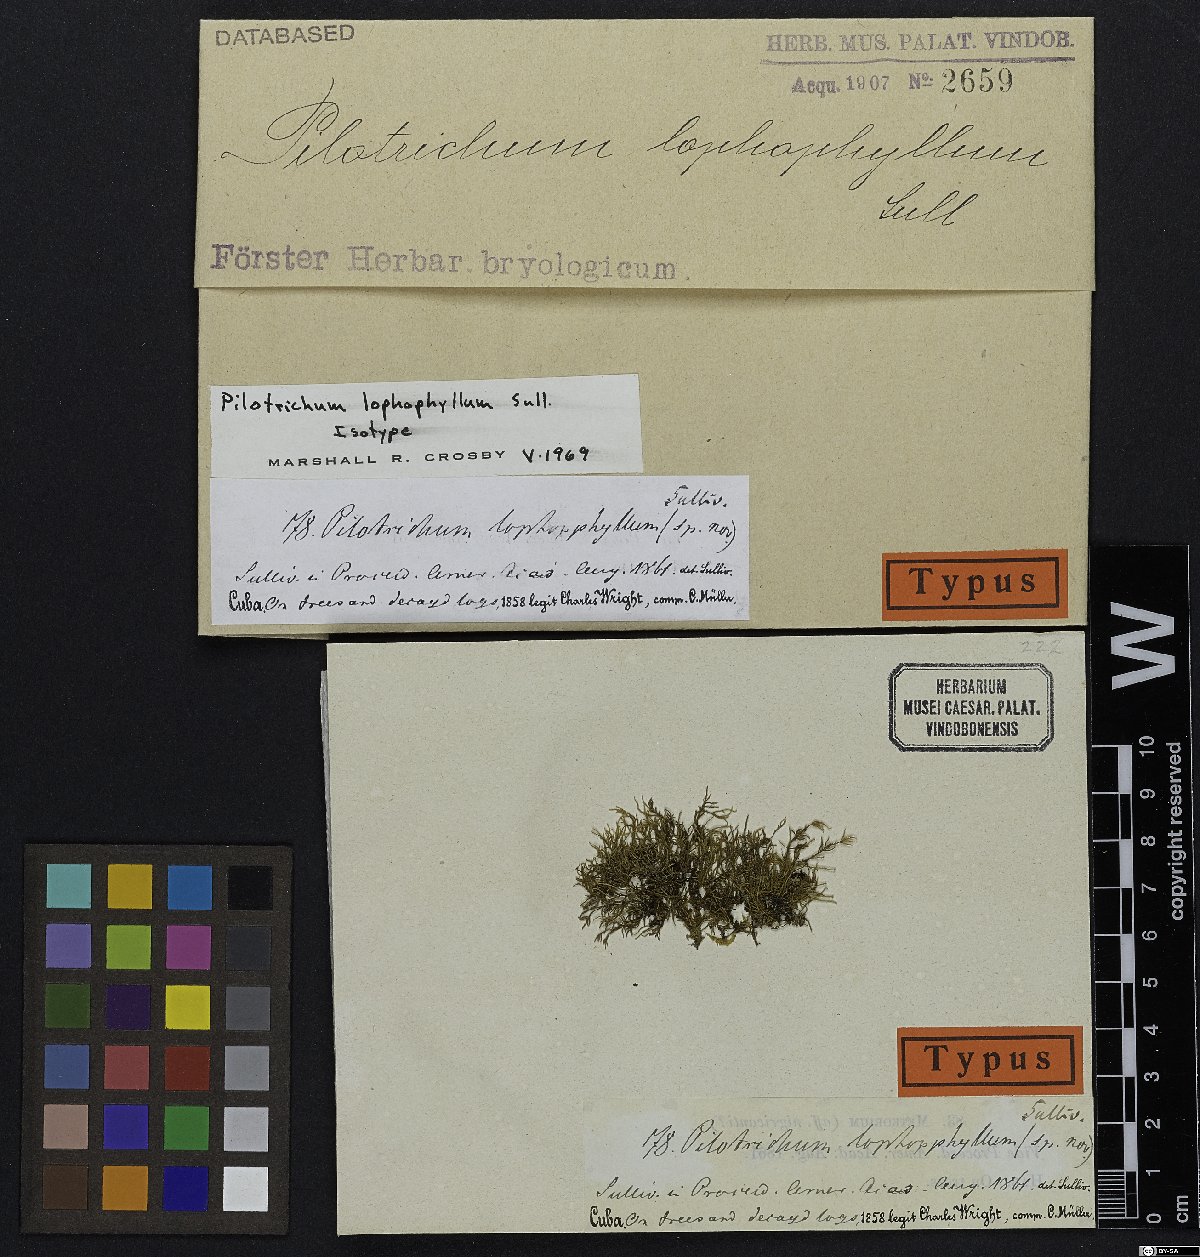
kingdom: Plantae
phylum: Bryophyta
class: Bryopsida
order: Hookeriales
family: Pilotrichaceae
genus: Pilotrichum
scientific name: Pilotrichum lophophyllum
